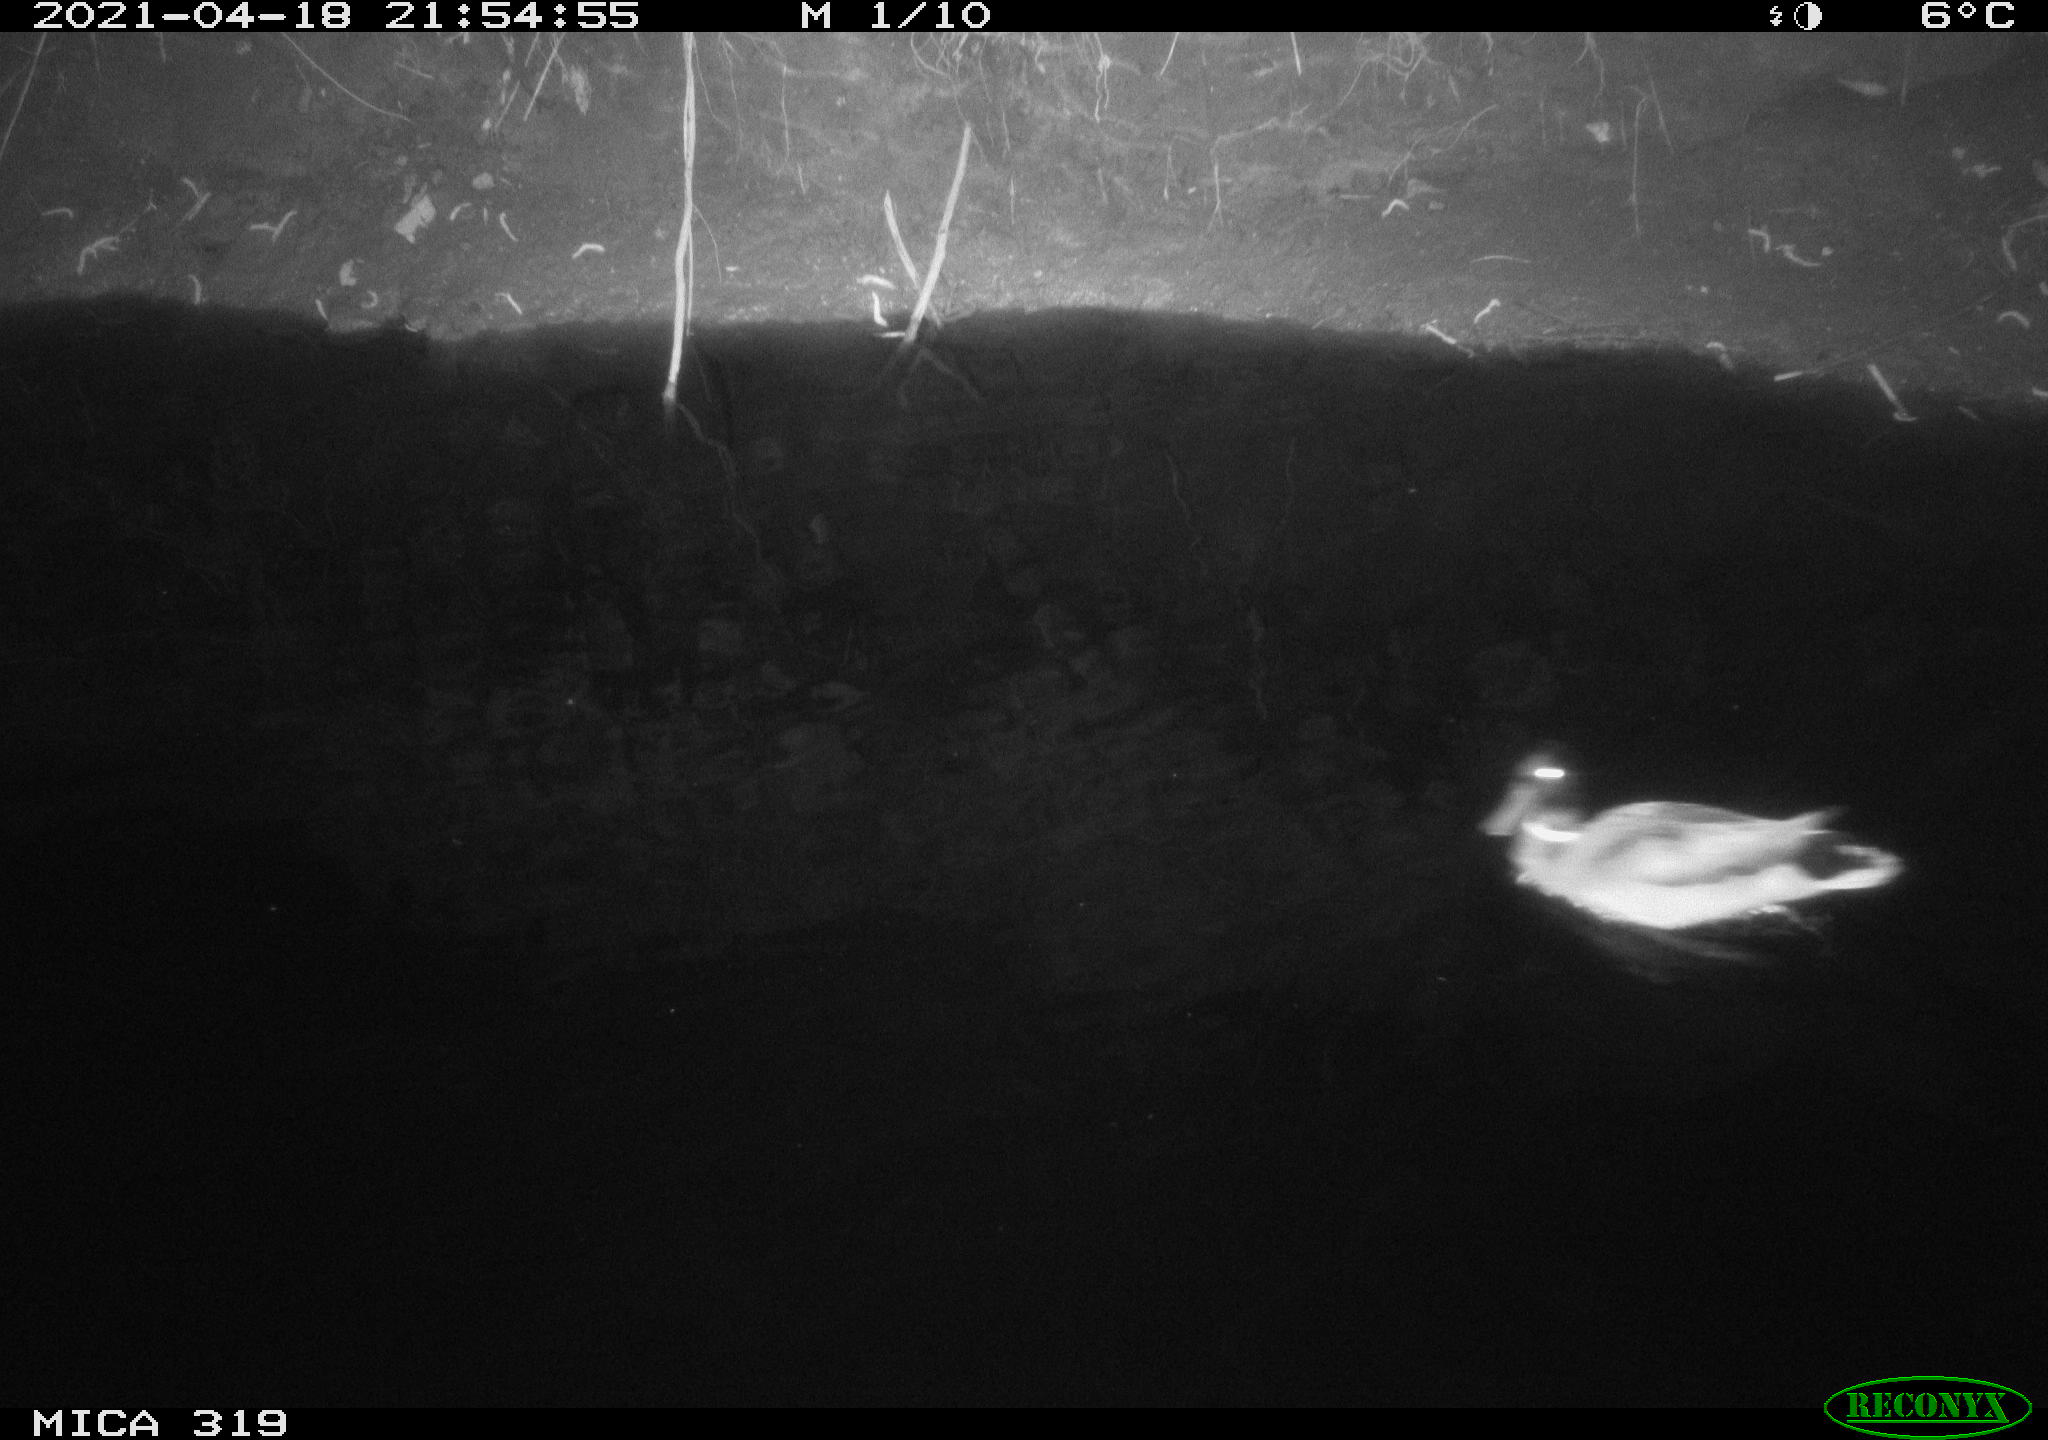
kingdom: Animalia
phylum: Chordata
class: Aves
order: Anseriformes
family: Anatidae
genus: Anas
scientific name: Anas platyrhynchos
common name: Mallard
